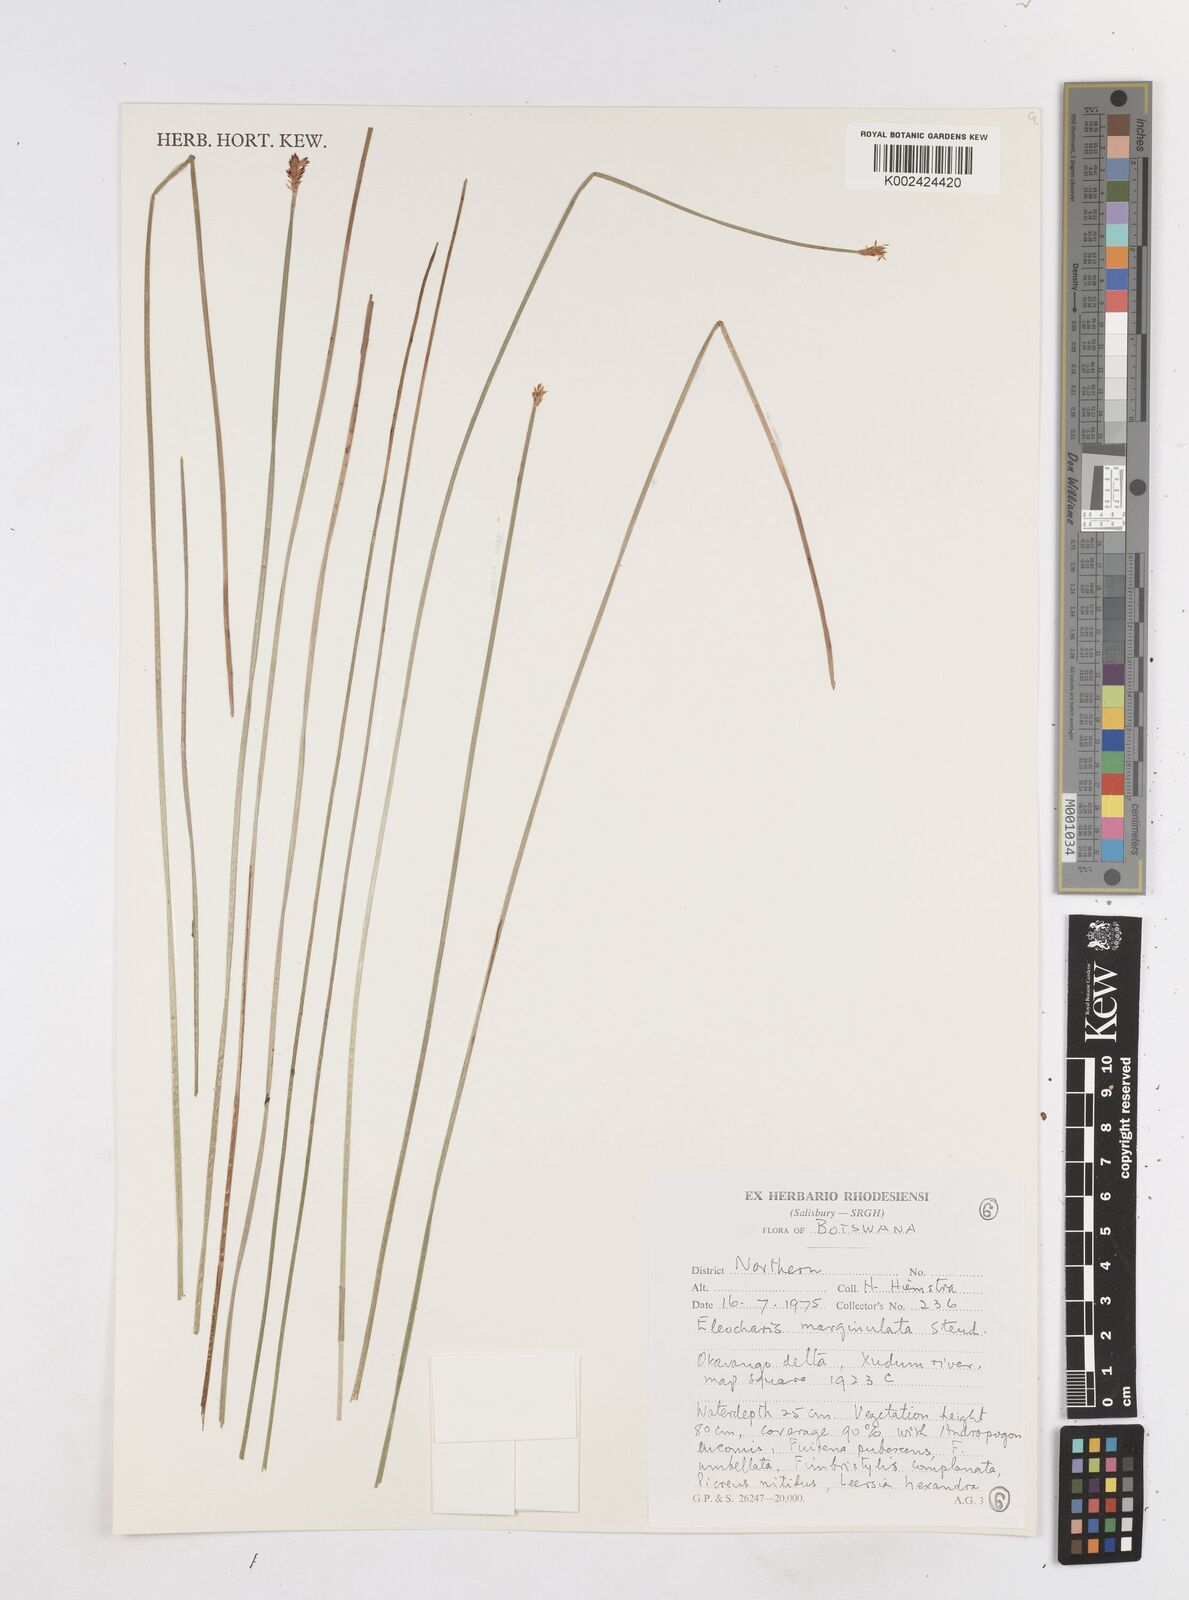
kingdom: Plantae
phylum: Tracheophyta
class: Liliopsida
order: Poales
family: Cyperaceae
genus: Eleocharis
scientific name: Eleocharis marginulata
